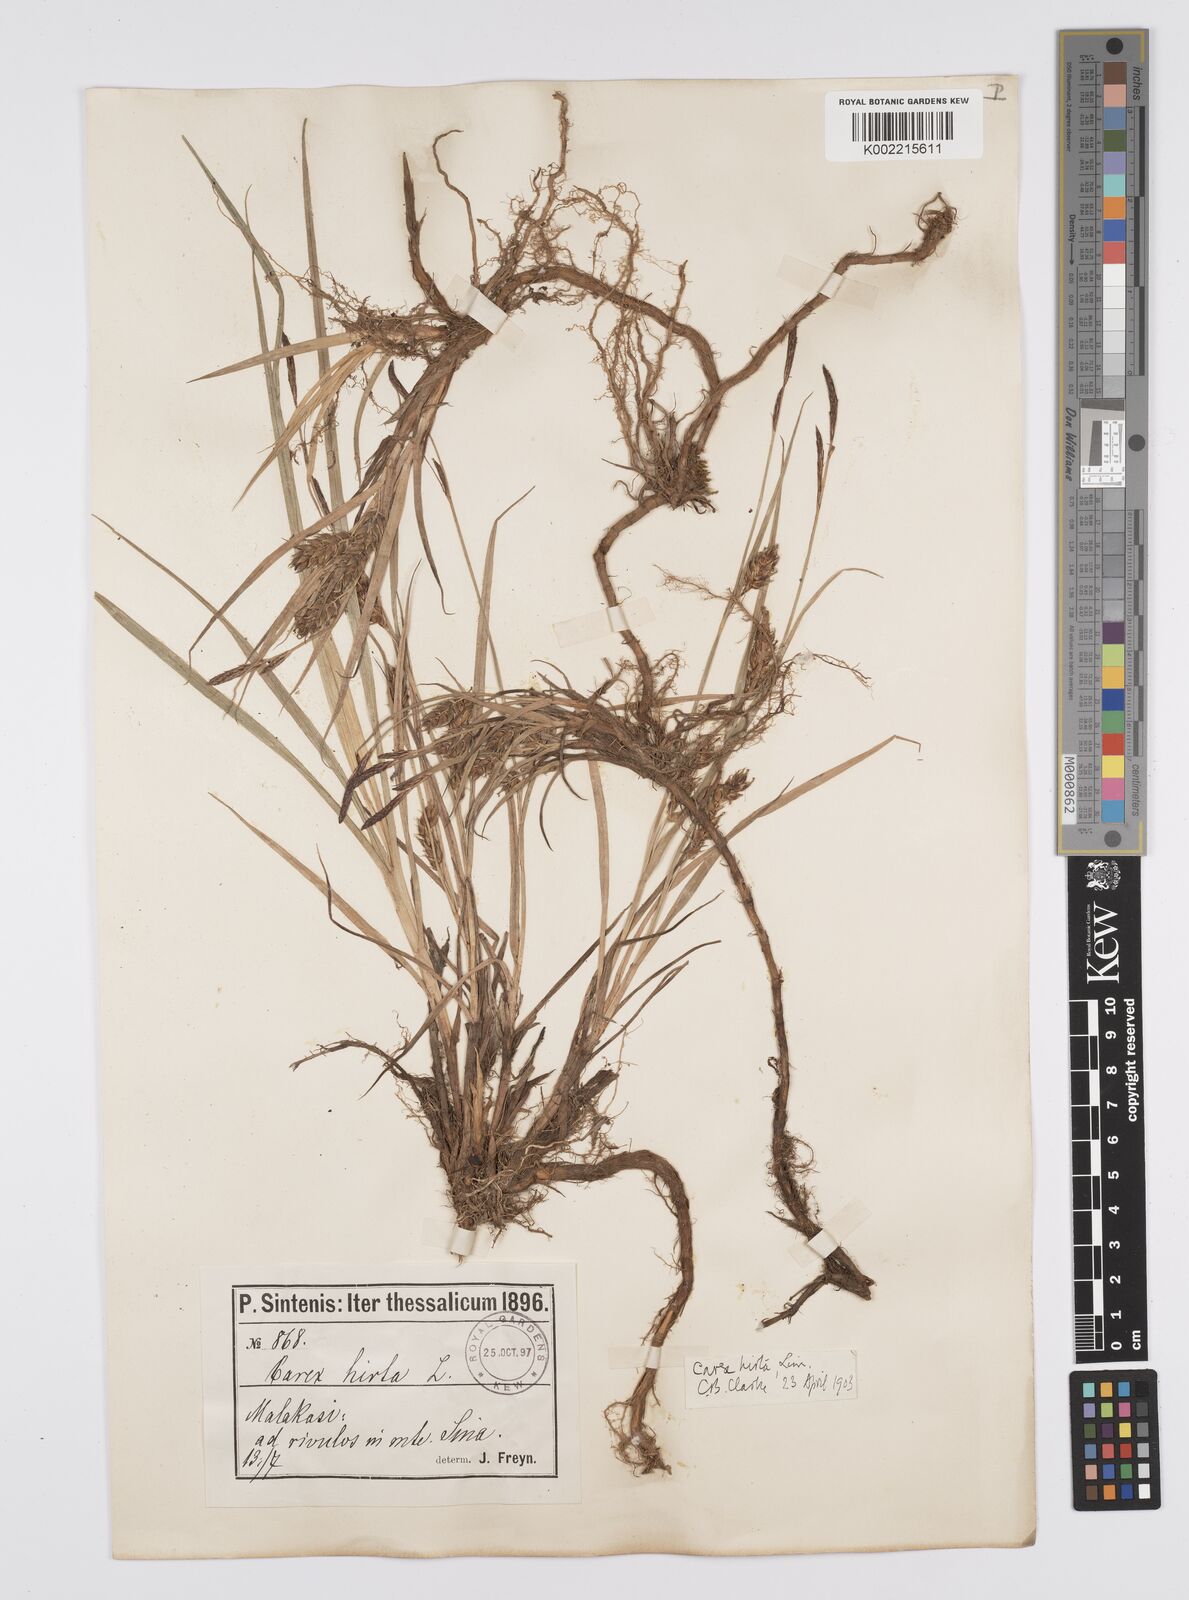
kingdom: Plantae
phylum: Tracheophyta
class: Liliopsida
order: Poales
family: Cyperaceae
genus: Carex
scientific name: Carex hirta
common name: Hairy sedge
